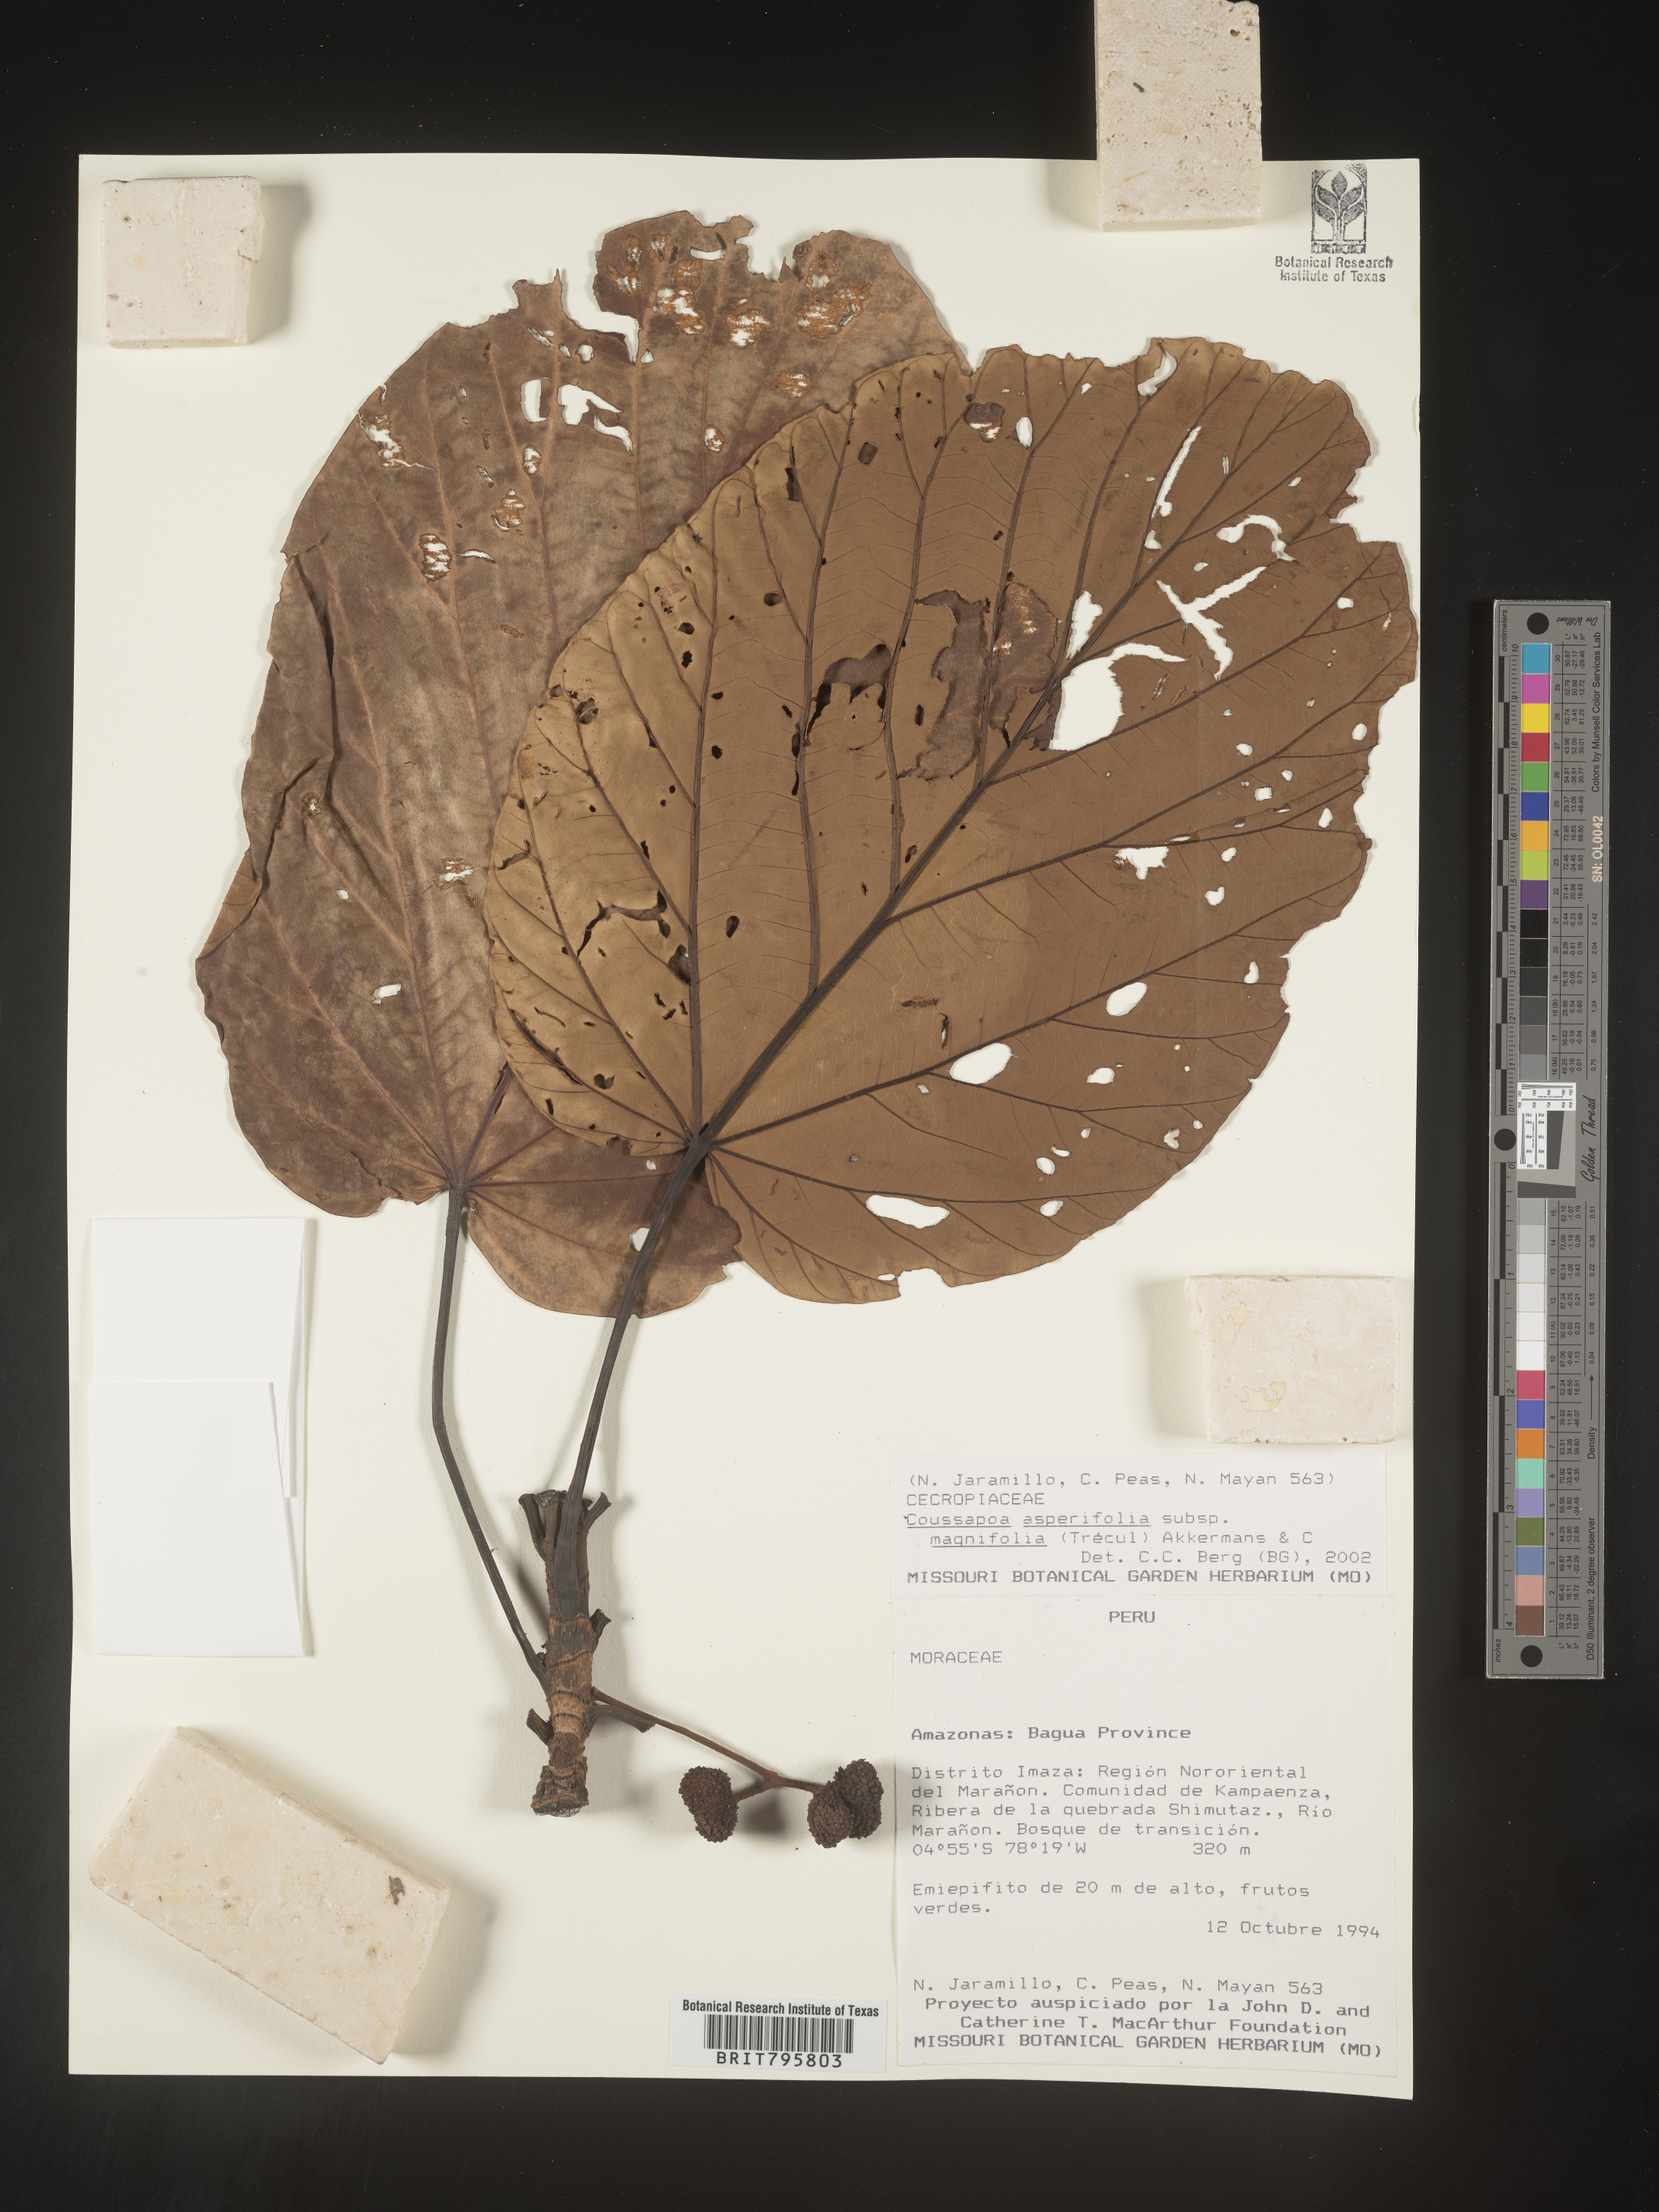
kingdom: Plantae
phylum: Tracheophyta
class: Magnoliopsida
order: Rosales
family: Urticaceae
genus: Coussapoa
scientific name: Coussapoa
